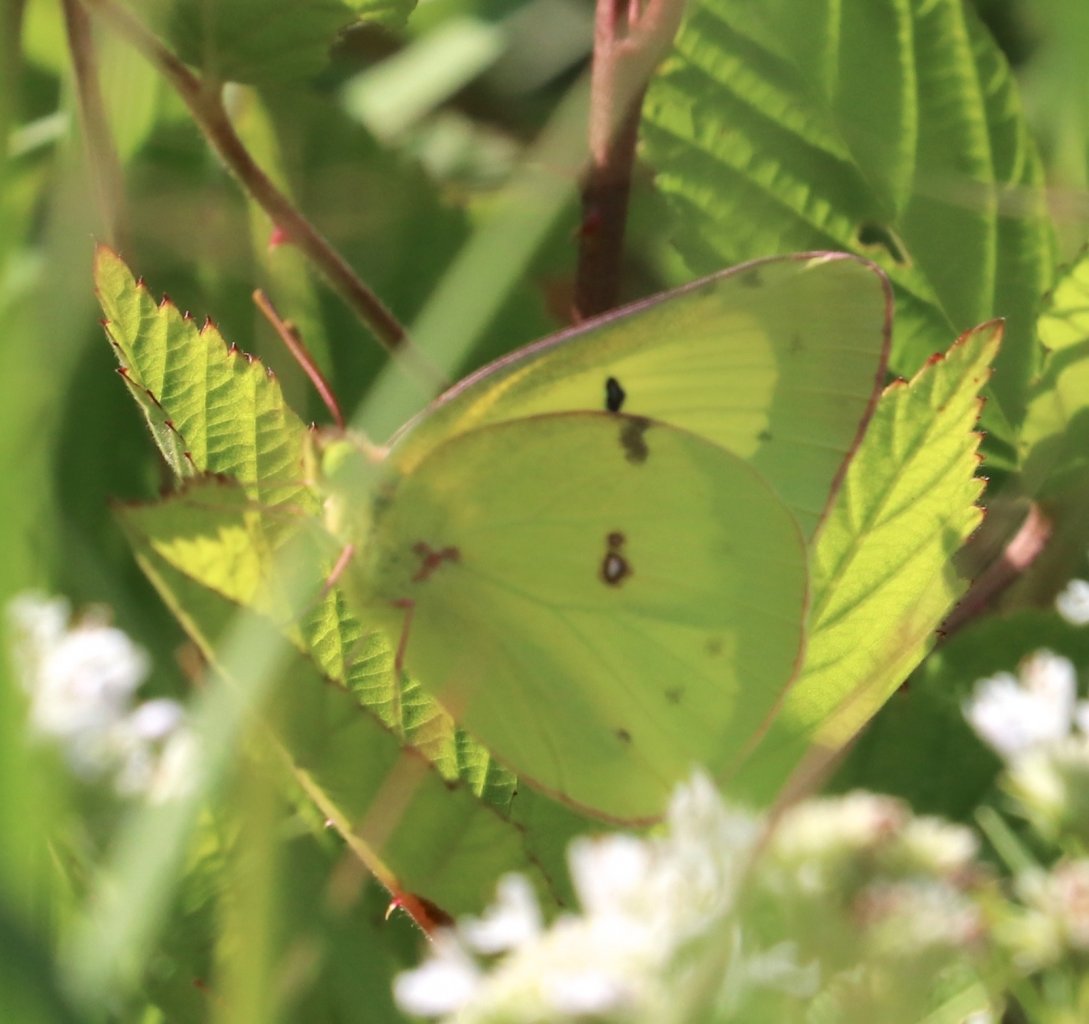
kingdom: Animalia
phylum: Arthropoda
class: Insecta
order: Lepidoptera
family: Pieridae
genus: Colias
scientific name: Colias philodice
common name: Clouded Sulphur
